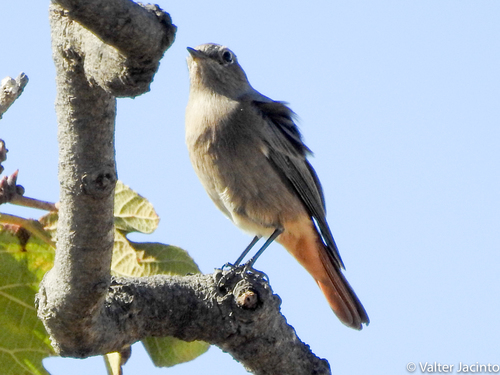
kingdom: Animalia
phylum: Chordata
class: Aves
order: Passeriformes
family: Muscicapidae
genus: Phoenicurus
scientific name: Phoenicurus ochruros
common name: Black redstart
